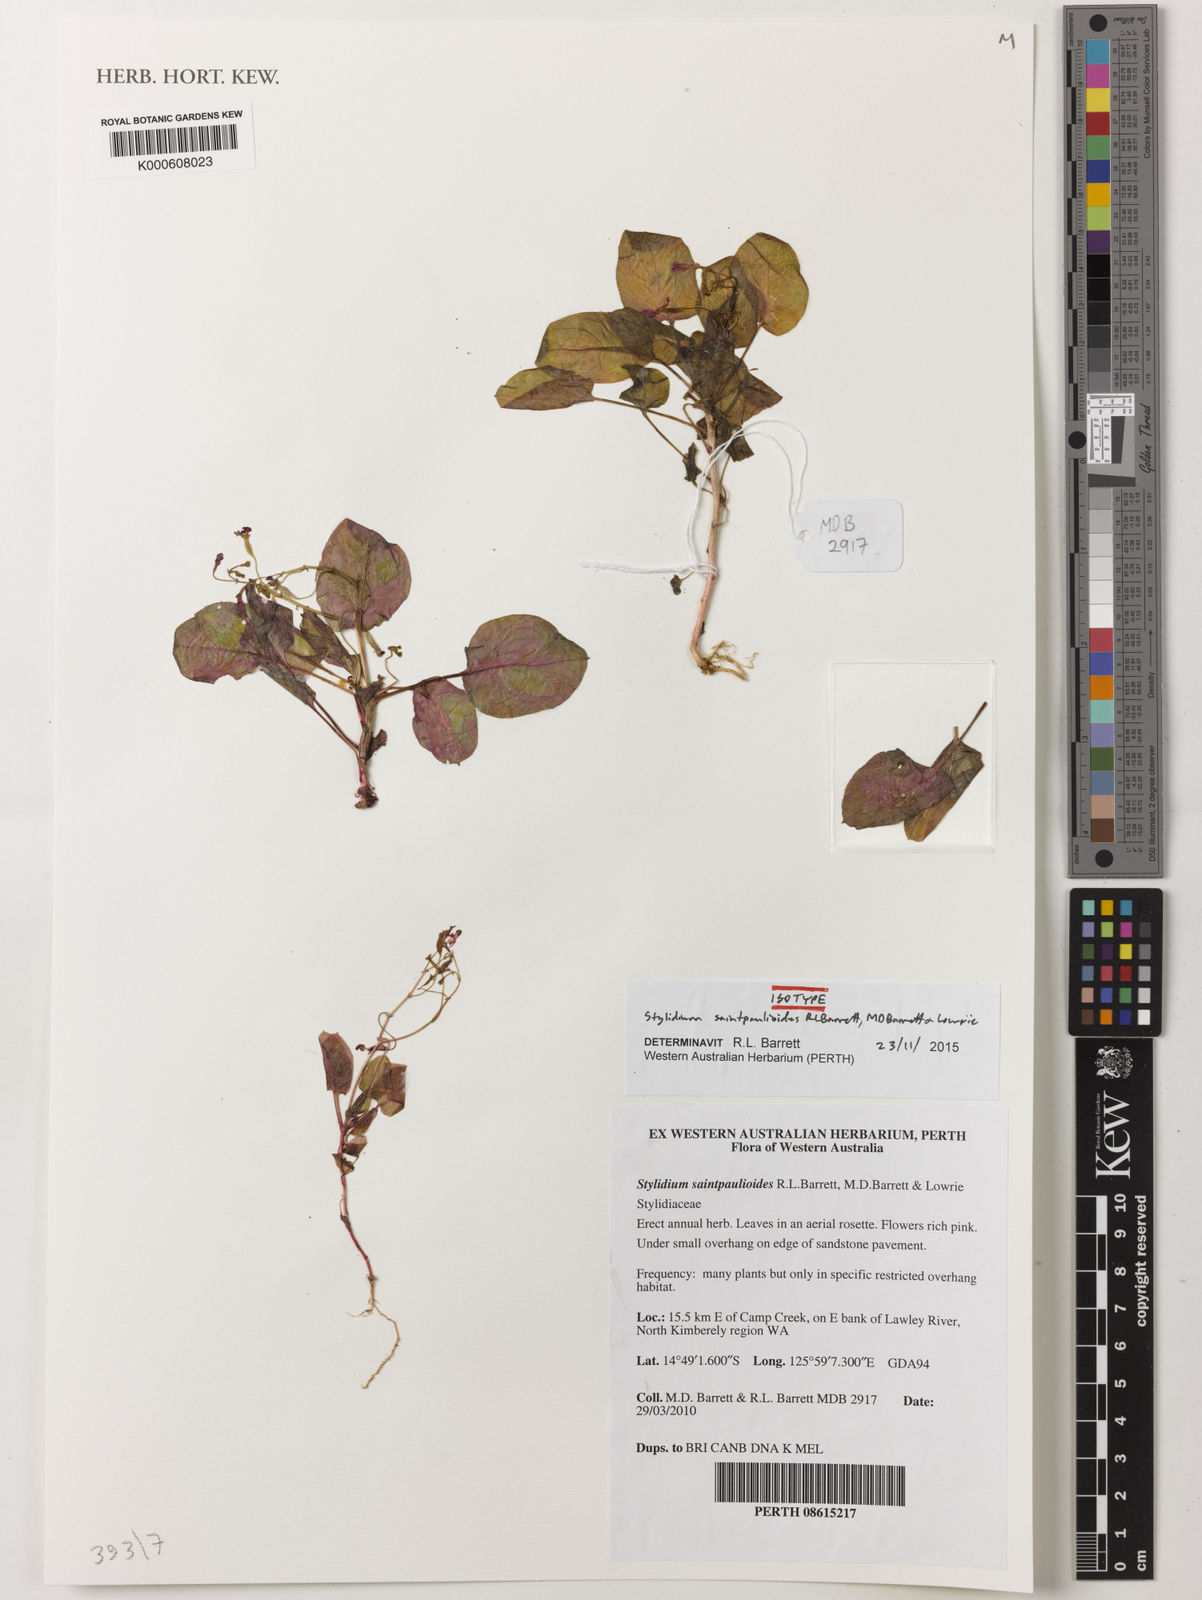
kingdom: Plantae
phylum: Tracheophyta
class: Magnoliopsida
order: Asterales
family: Stylidiaceae
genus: Stylidium
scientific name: Stylidium saintpaulioides
